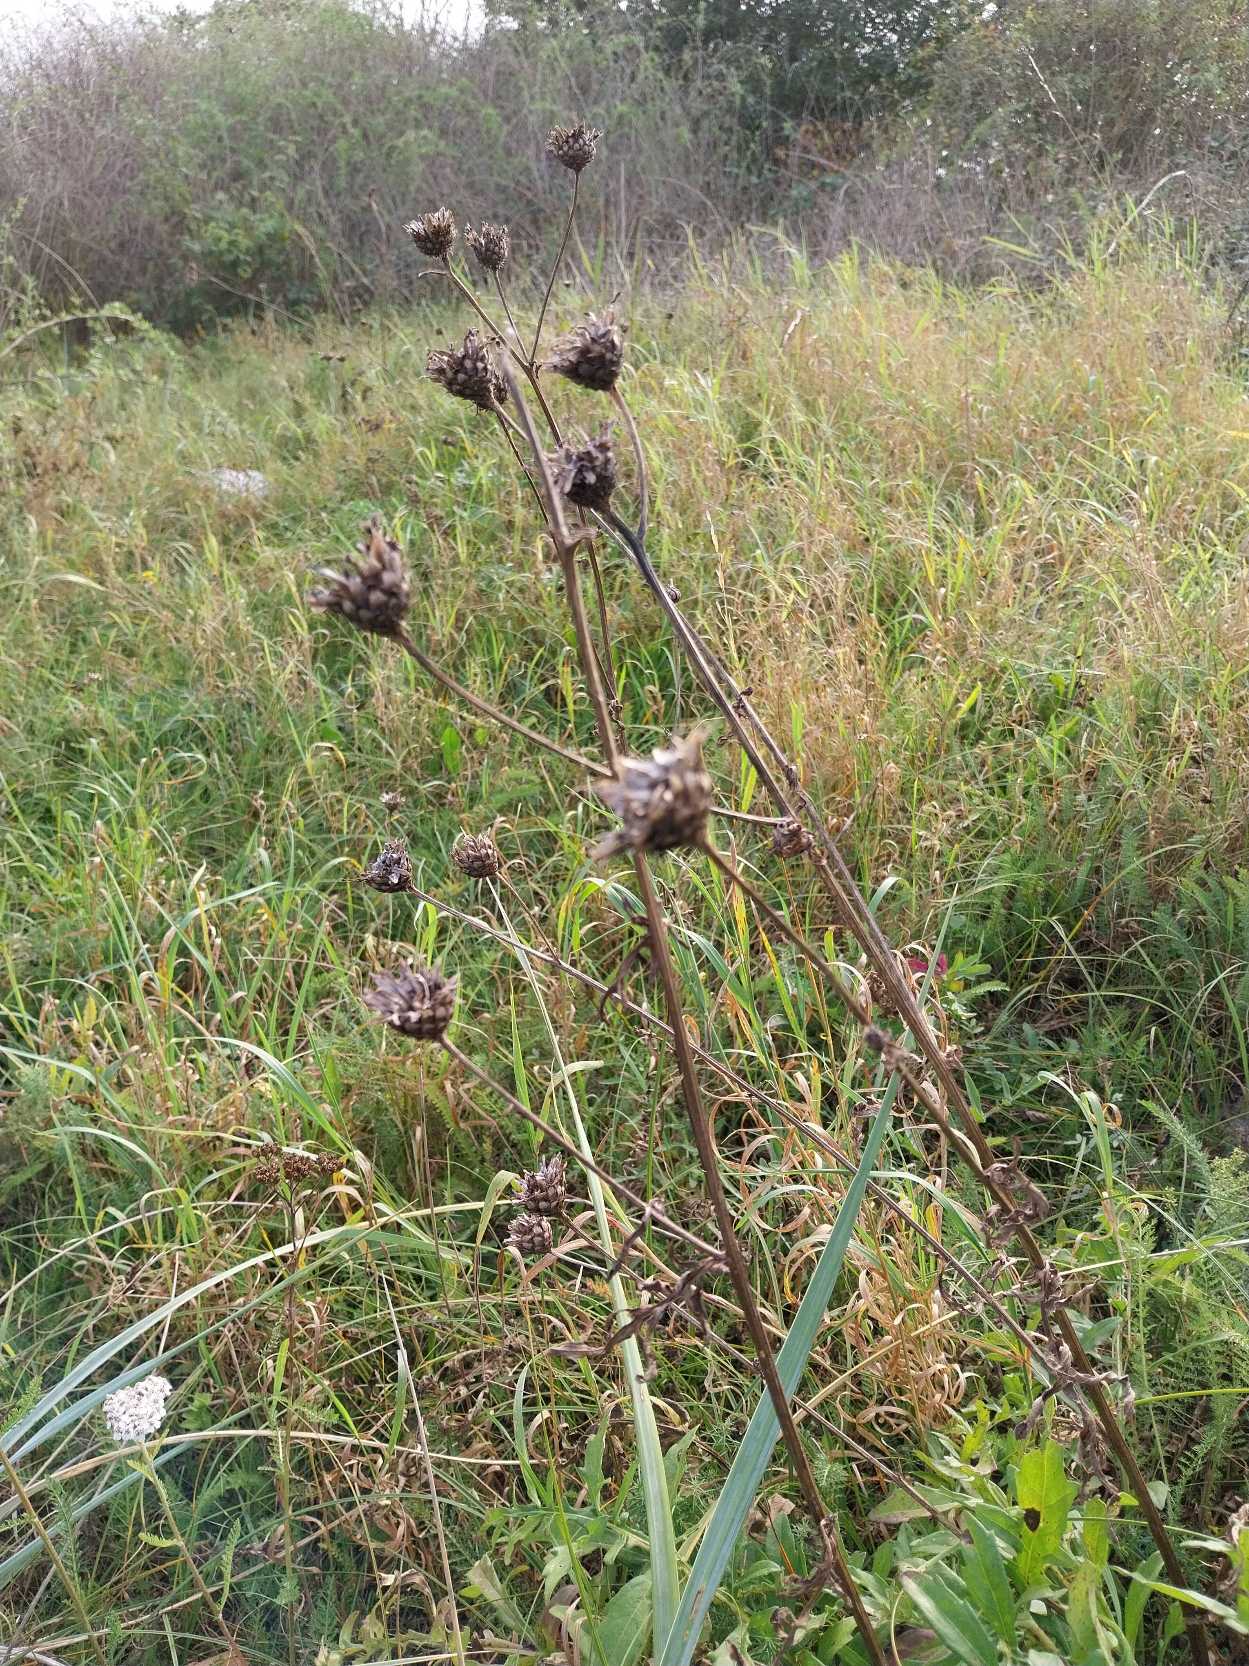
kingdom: Plantae
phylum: Tracheophyta
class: Magnoliopsida
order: Asterales
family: Asteraceae
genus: Centaurea
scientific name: Centaurea scabiosa
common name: Stor knopurt
